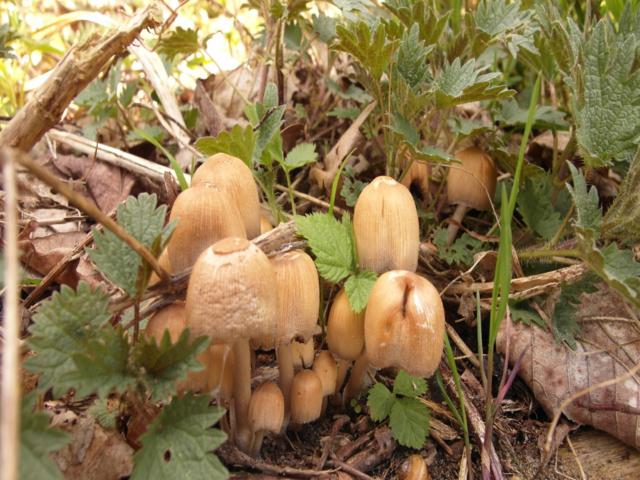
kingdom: Fungi
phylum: Basidiomycota
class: Agaricomycetes
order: Agaricales
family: Psathyrellaceae
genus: Coprinellus
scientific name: Coprinellus micaceus
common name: glimmer-blækhat
